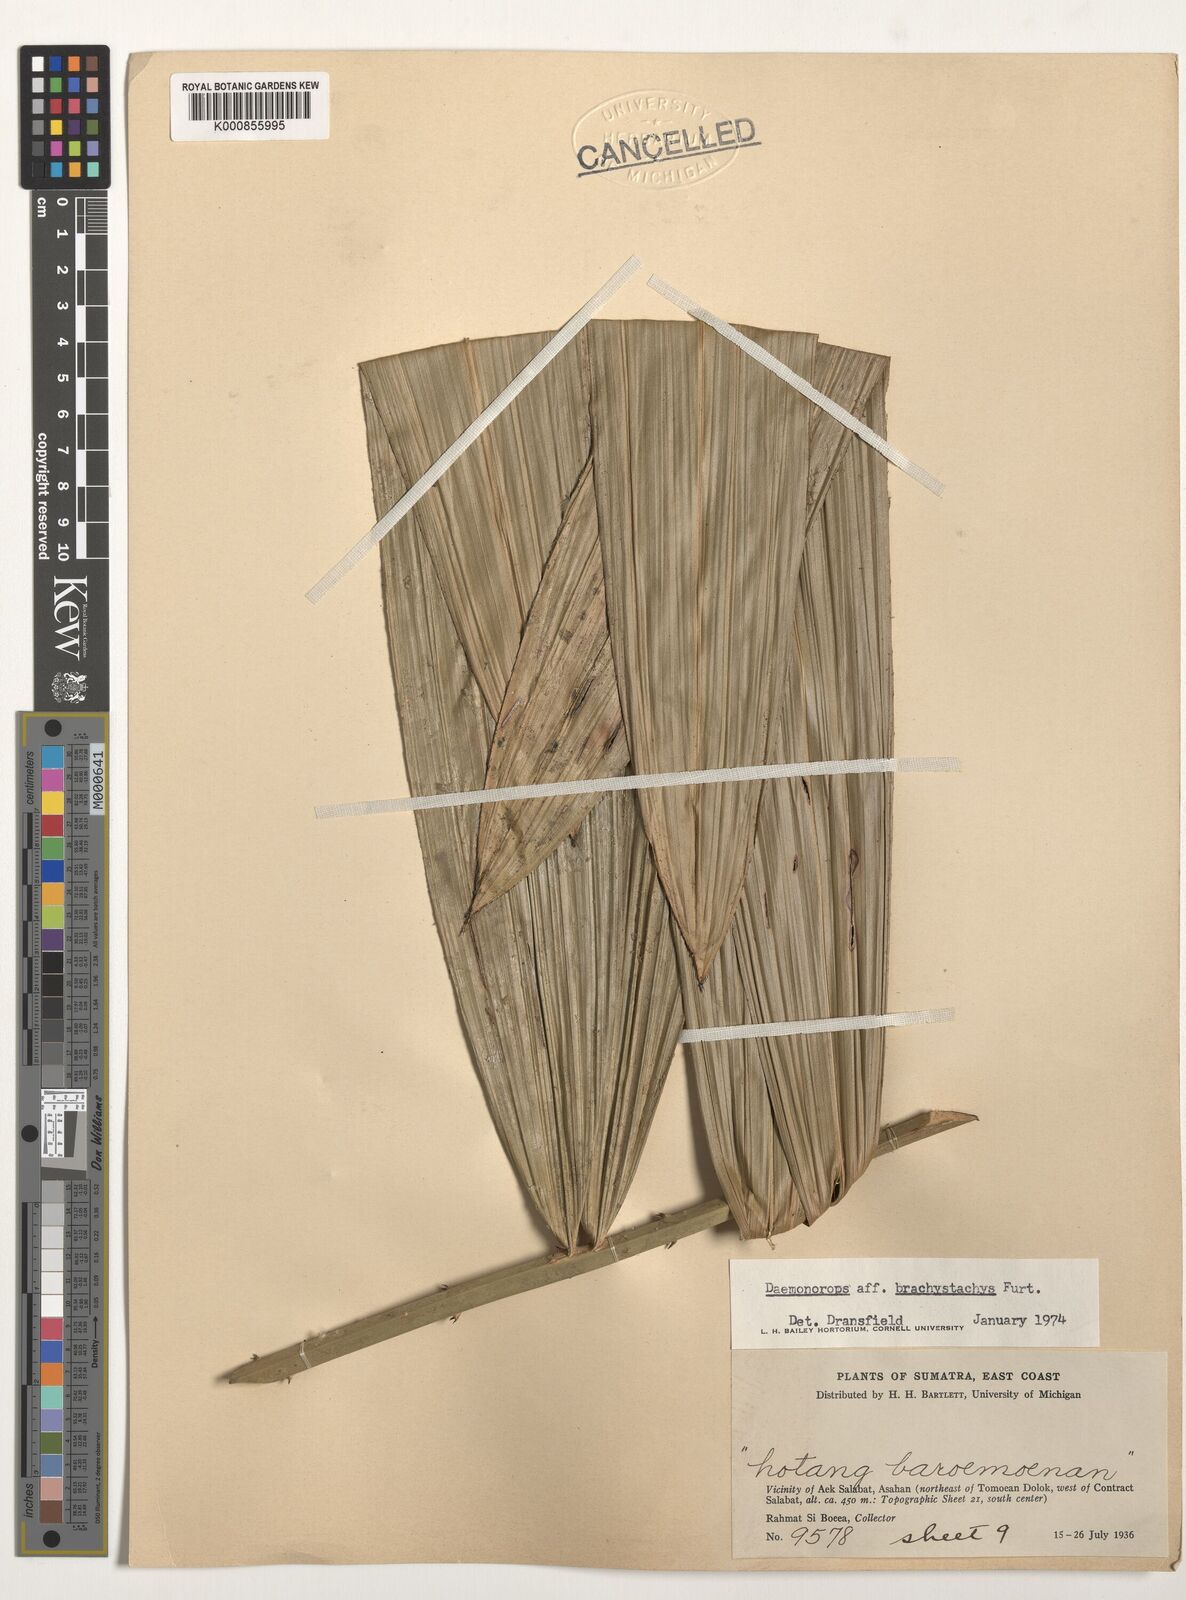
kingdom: Plantae
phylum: Tracheophyta
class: Liliopsida
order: Arecales
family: Arecaceae
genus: Calamus
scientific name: Calamus
